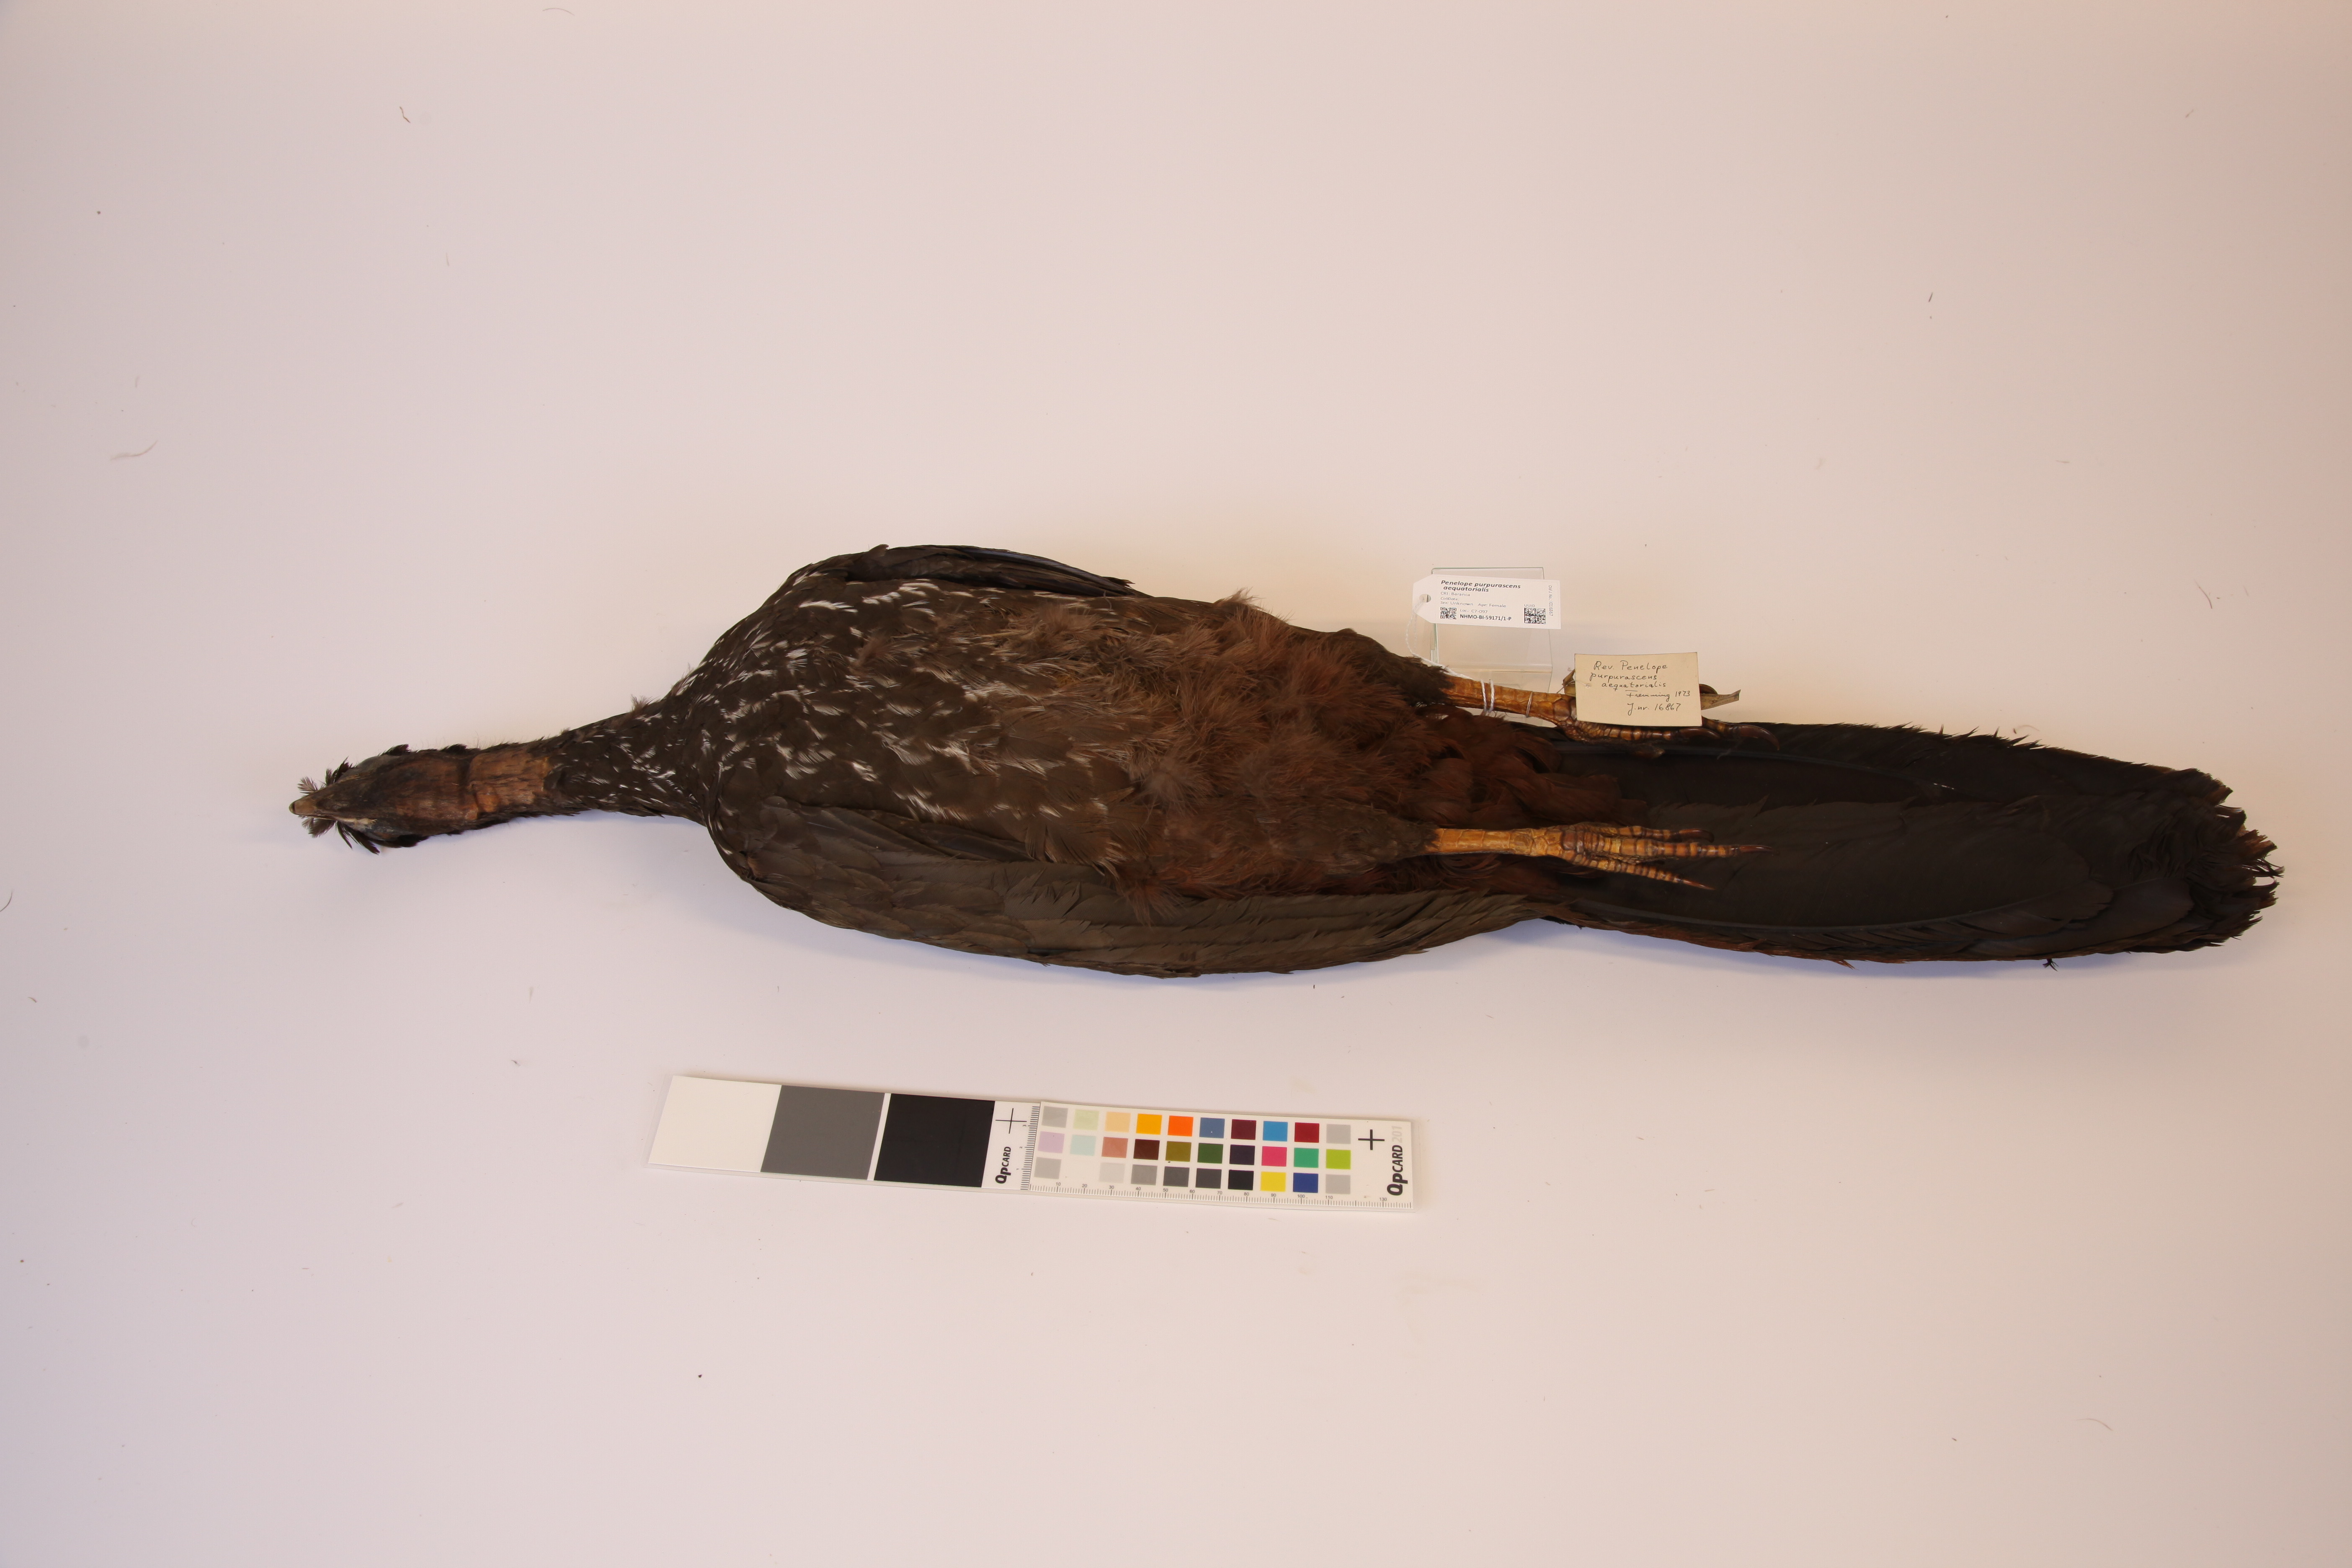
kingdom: Animalia
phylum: Chordata
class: Aves
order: Galliformes
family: Cracidae
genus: Penelope
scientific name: Penelope purpurascens
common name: Crested guan
